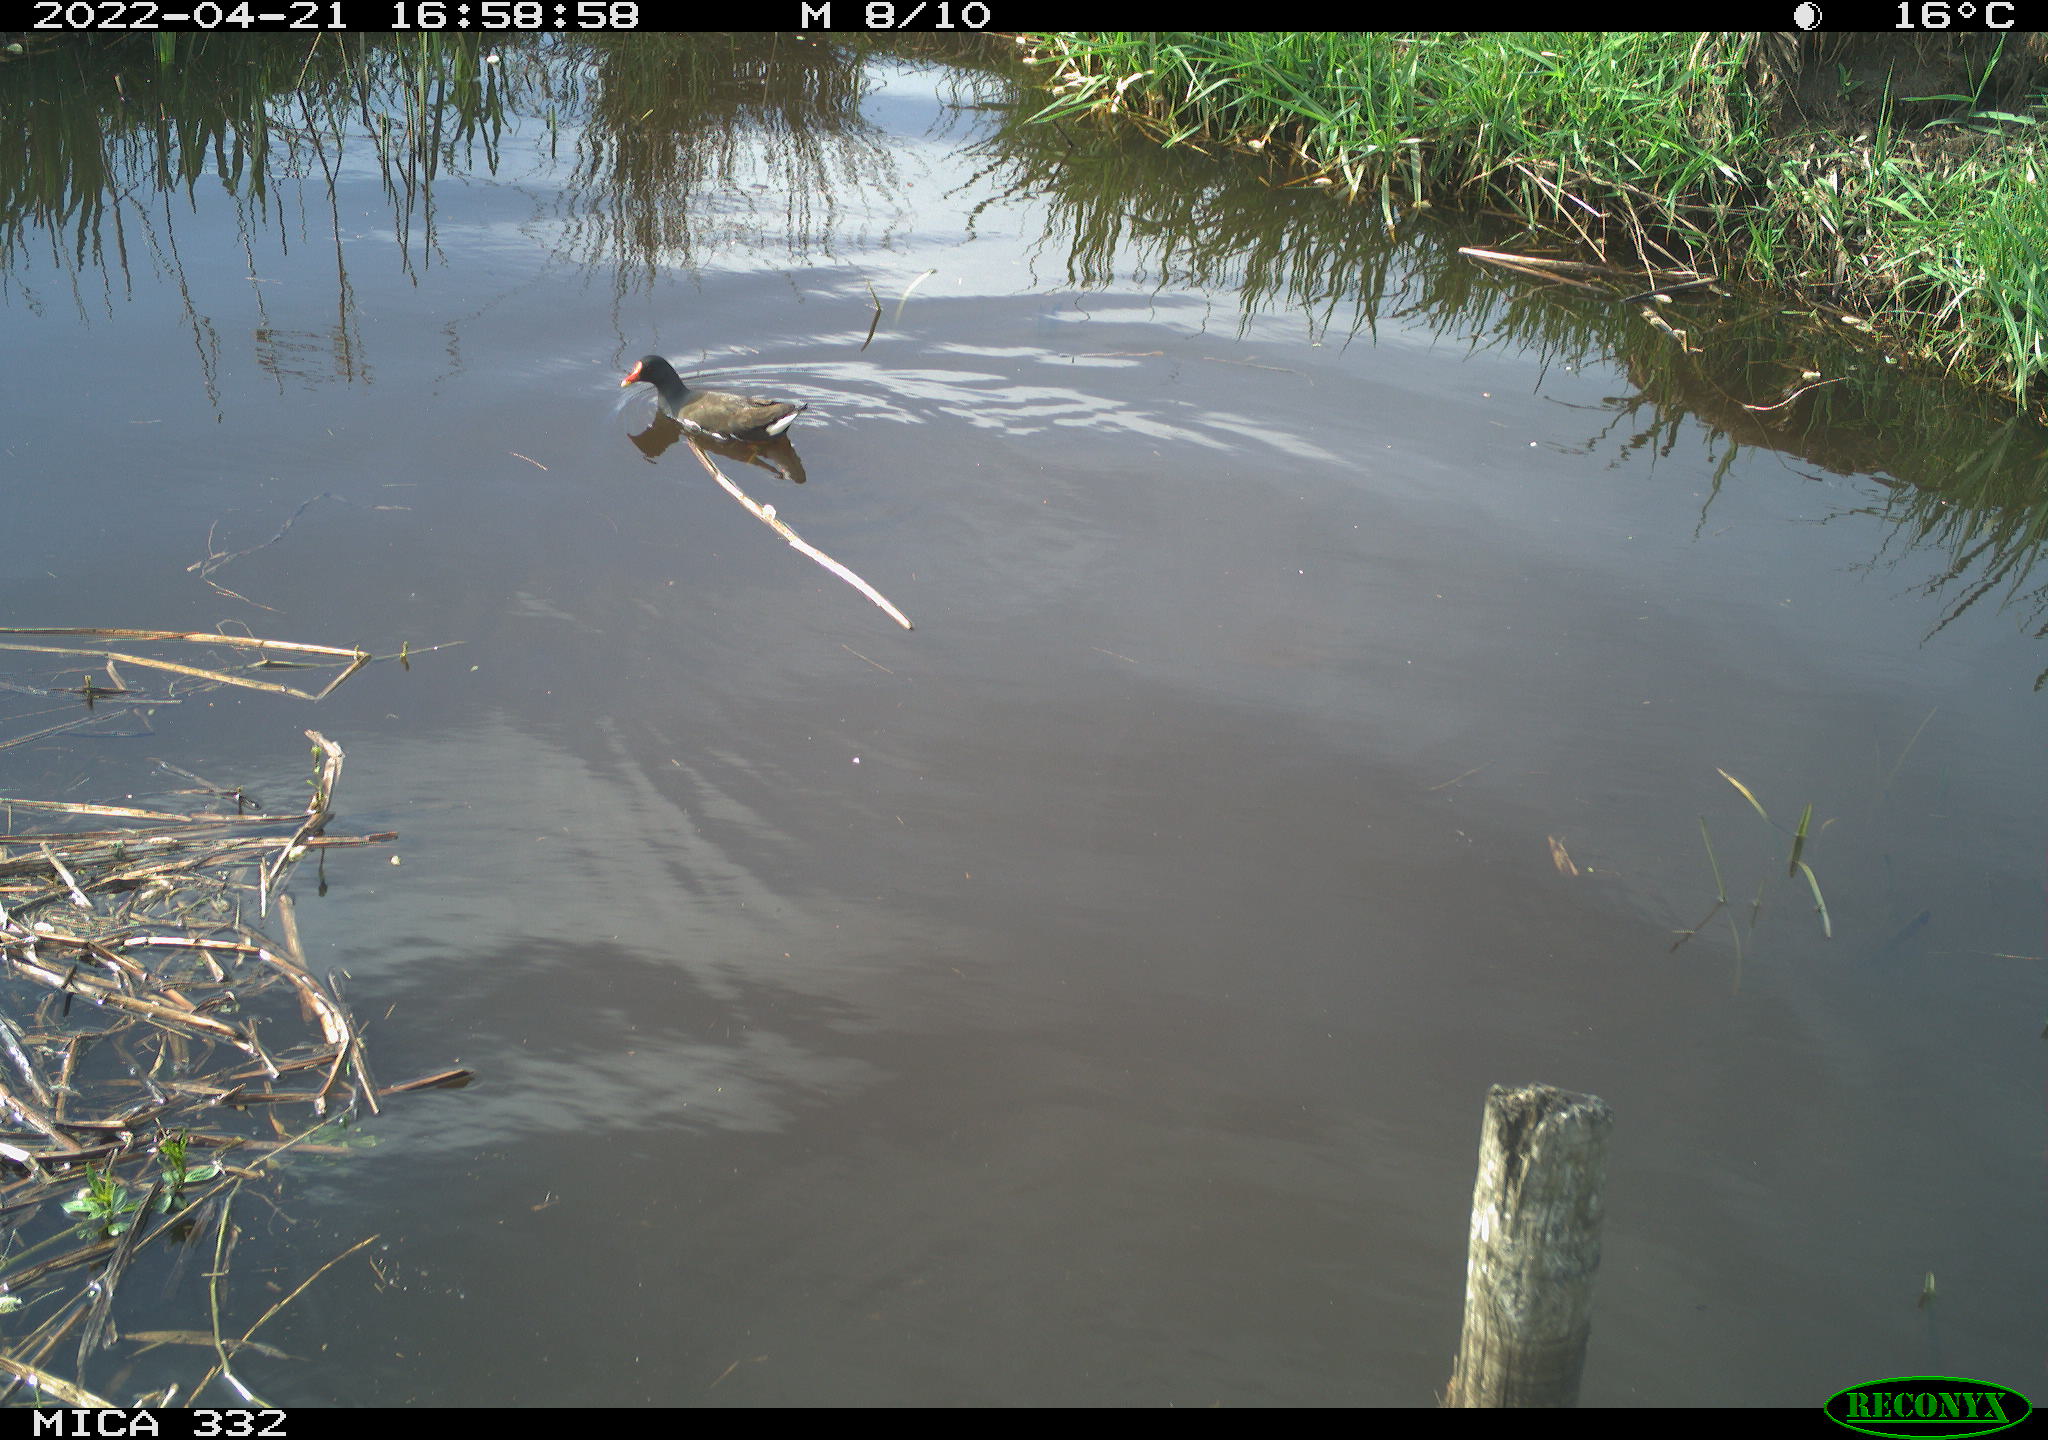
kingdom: Animalia
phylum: Chordata
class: Aves
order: Gruiformes
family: Rallidae
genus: Gallinula
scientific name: Gallinula chloropus
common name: Common moorhen
